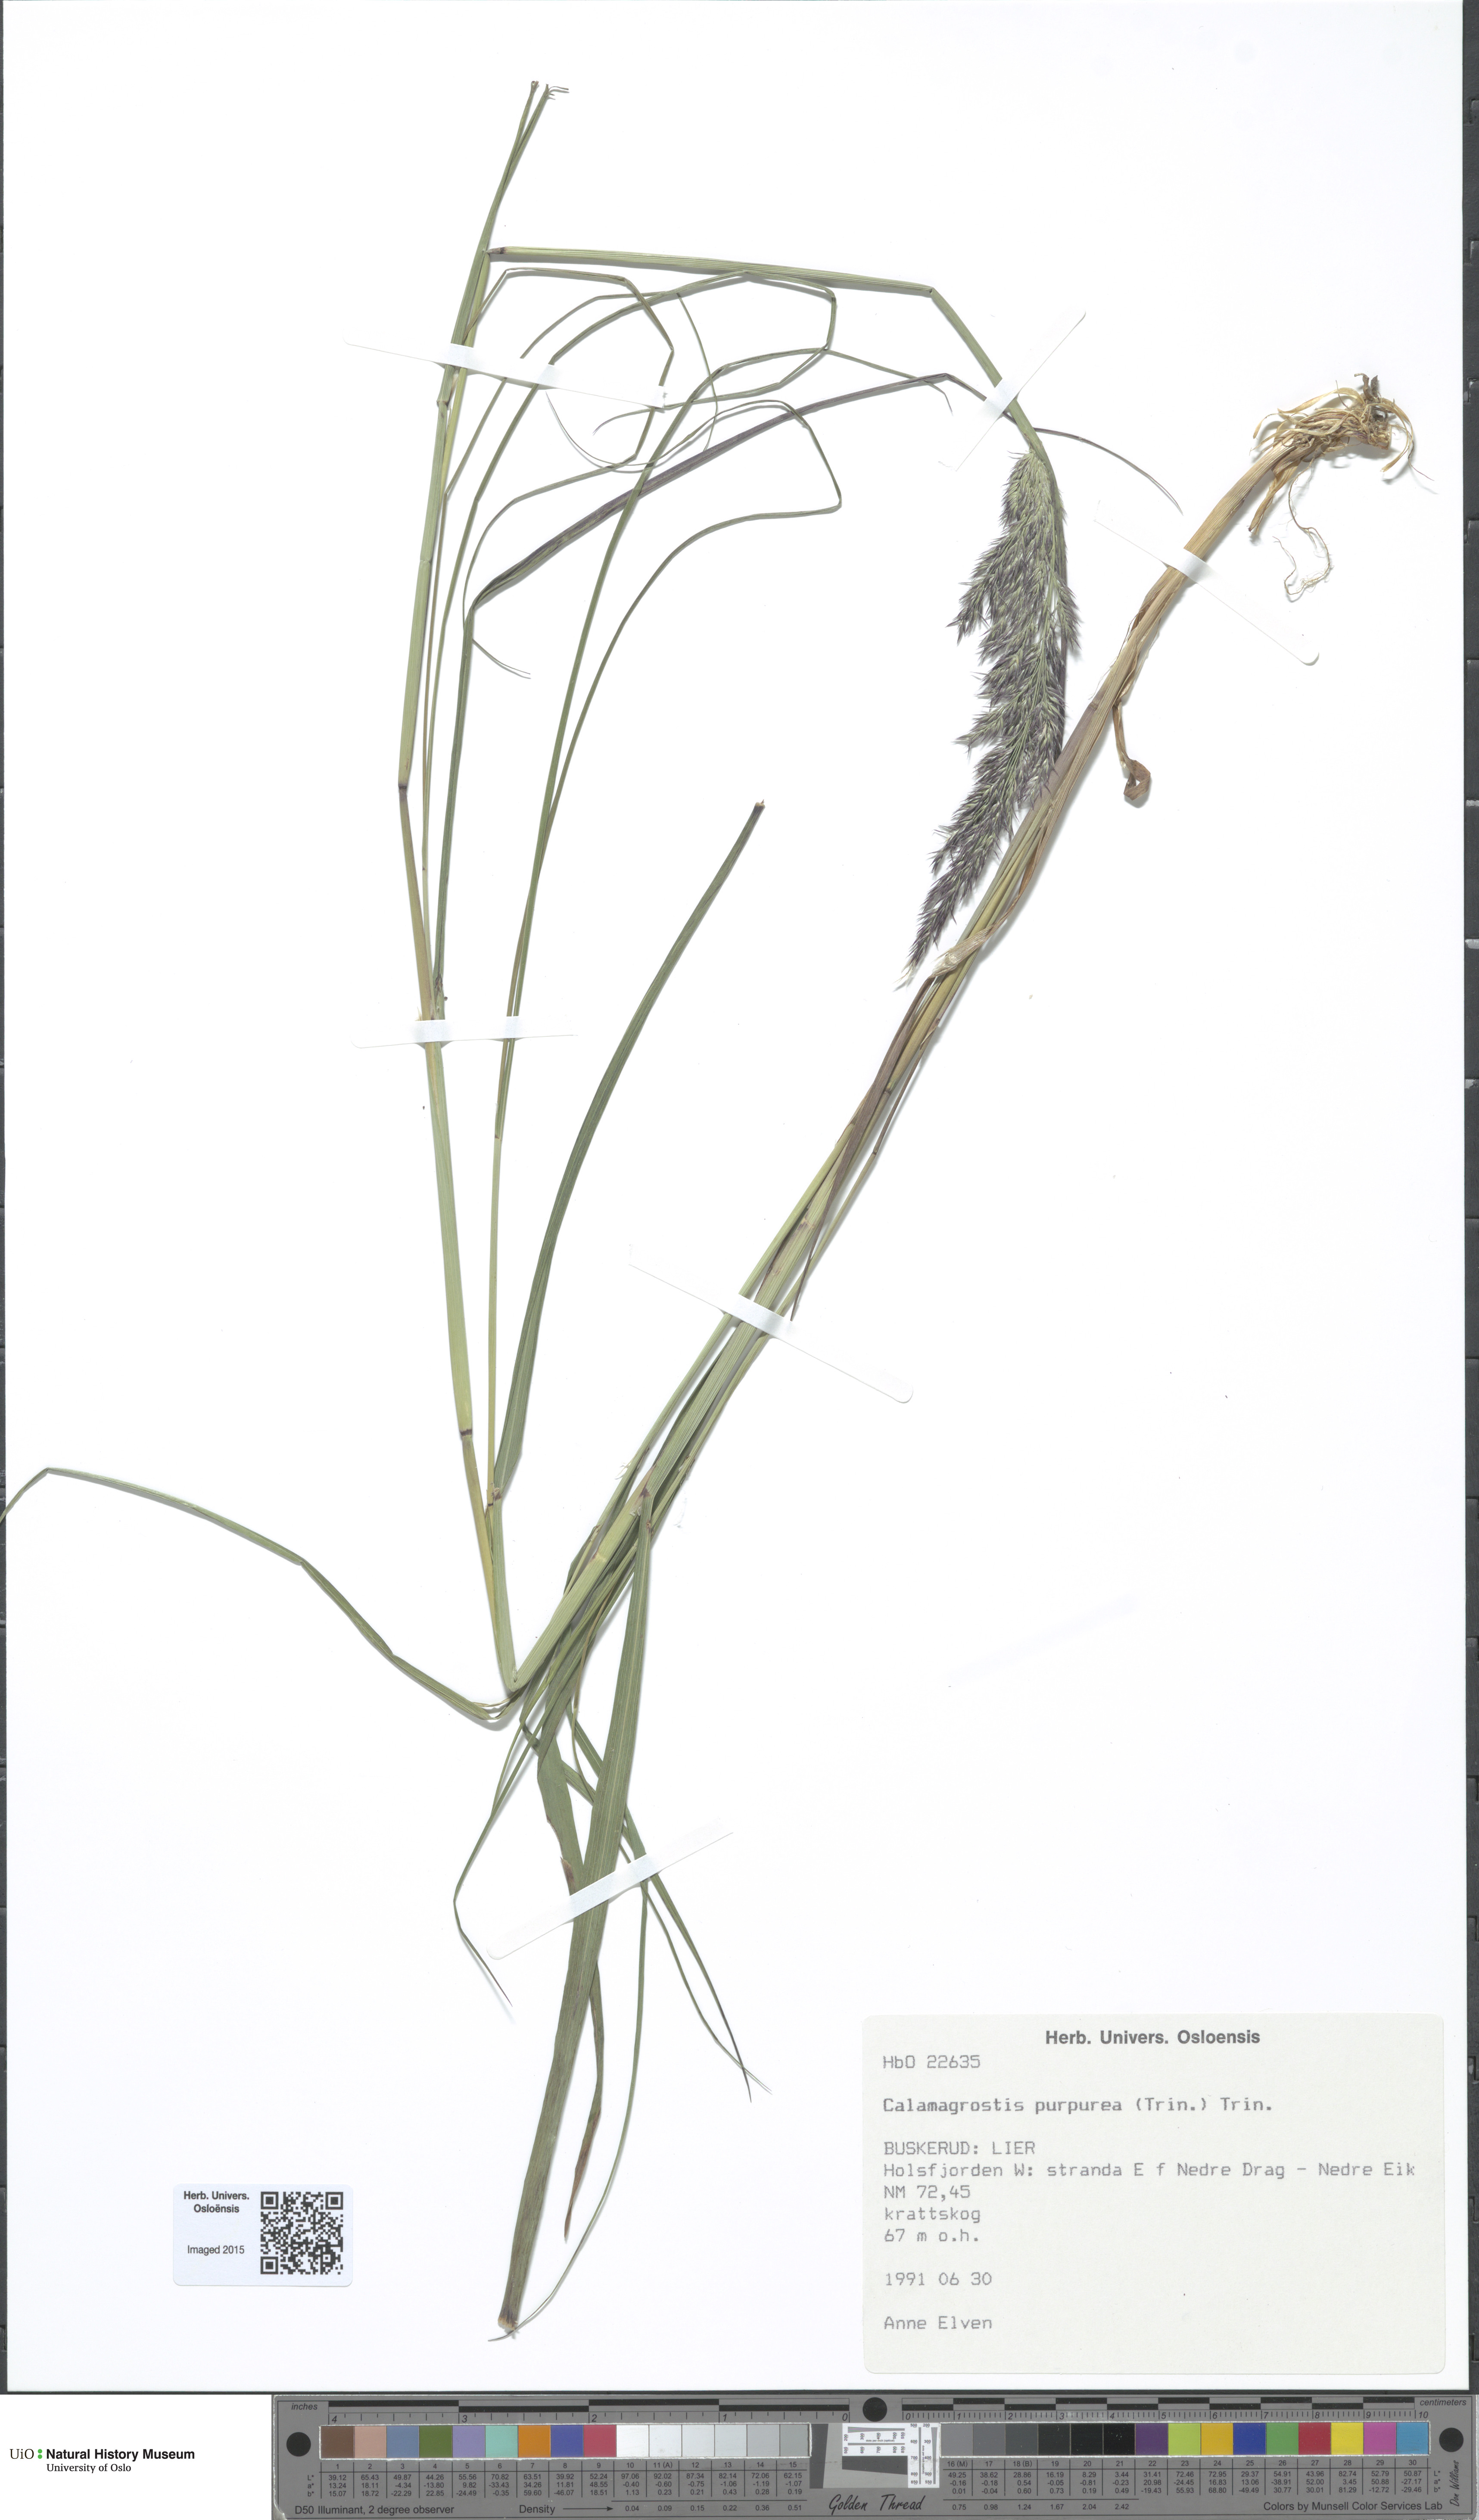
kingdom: Plantae
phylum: Tracheophyta
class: Liliopsida
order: Poales
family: Poaceae
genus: Calamagrostis
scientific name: Calamagrostis purpurea
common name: Scandinavian small-reed
